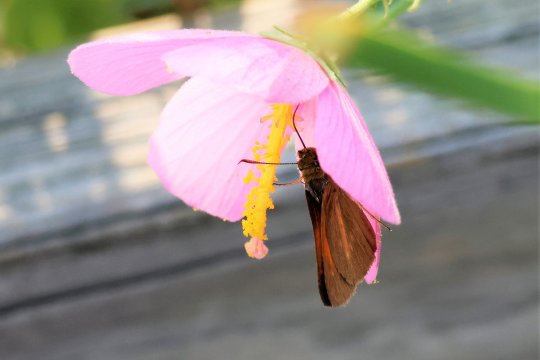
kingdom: Animalia
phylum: Arthropoda
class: Insecta
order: Lepidoptera
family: Hesperiidae
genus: Poanes
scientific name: Poanes aaroni
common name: Aaron's Skipper
